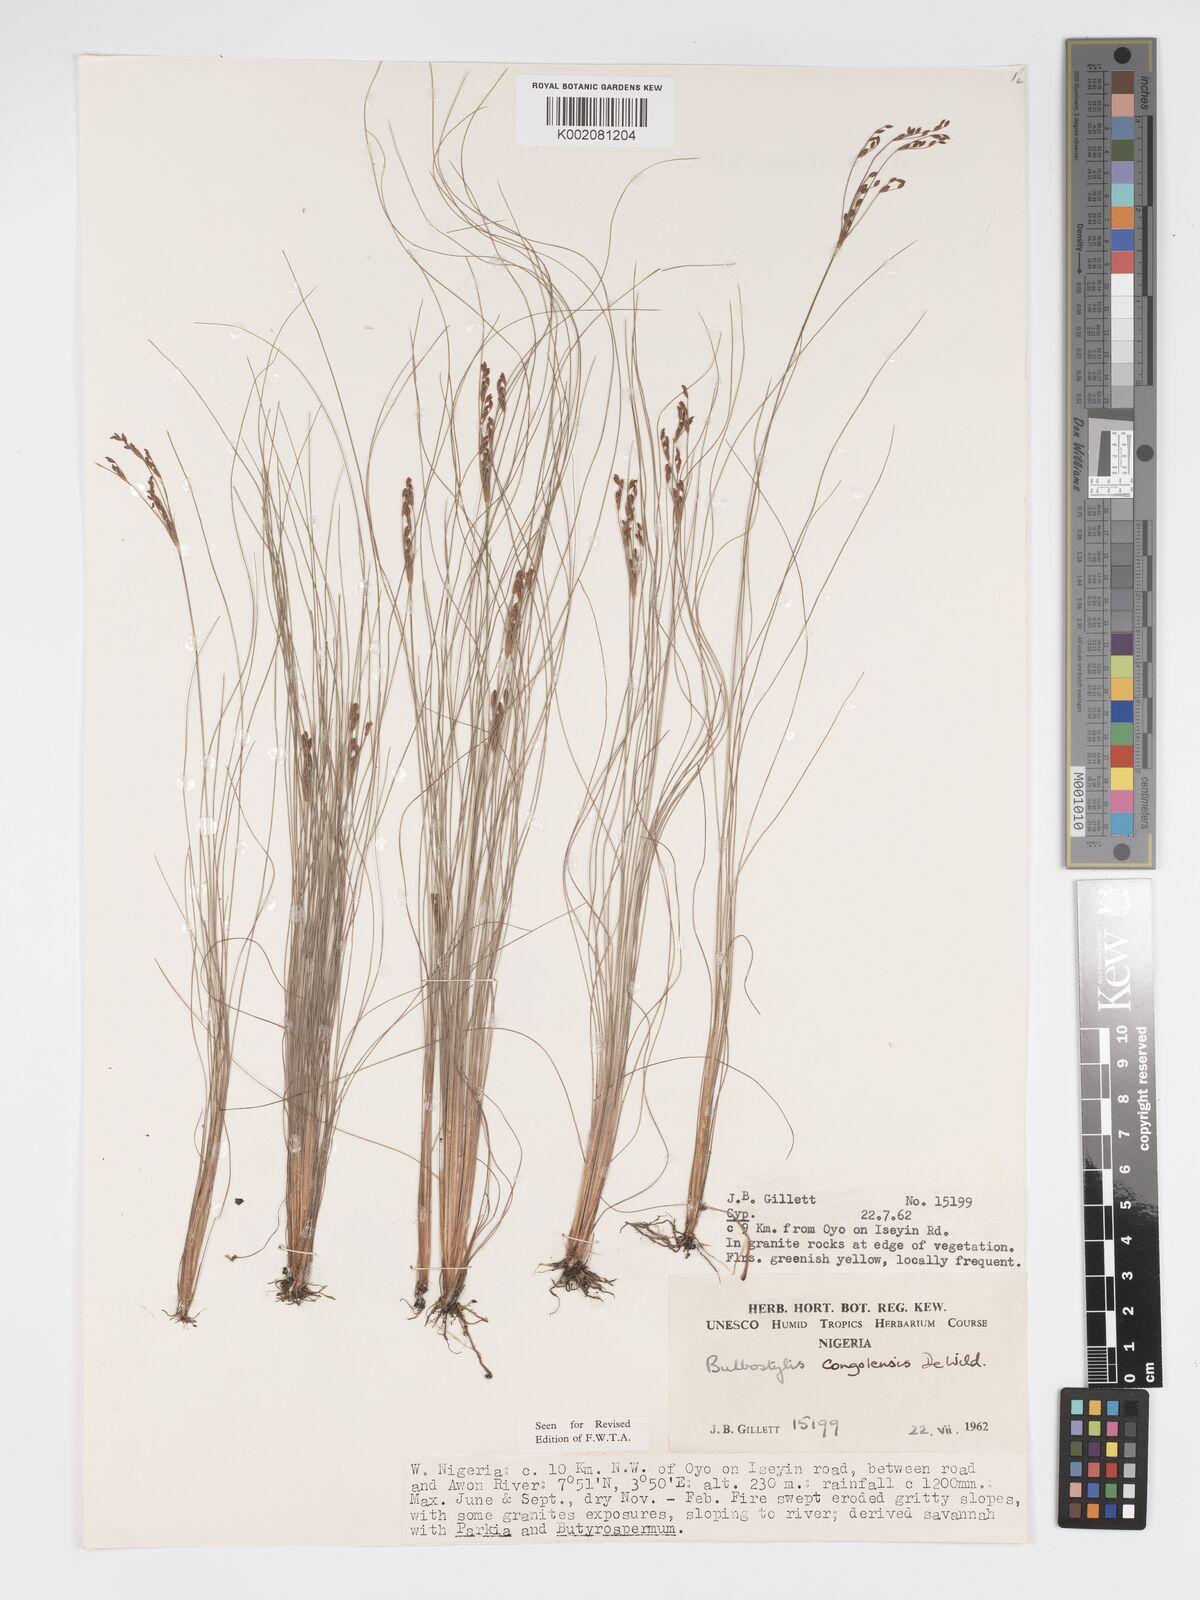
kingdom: Plantae
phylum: Tracheophyta
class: Liliopsida
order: Poales
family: Cyperaceae
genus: Bulbostylis
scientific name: Bulbostylis congolensis
